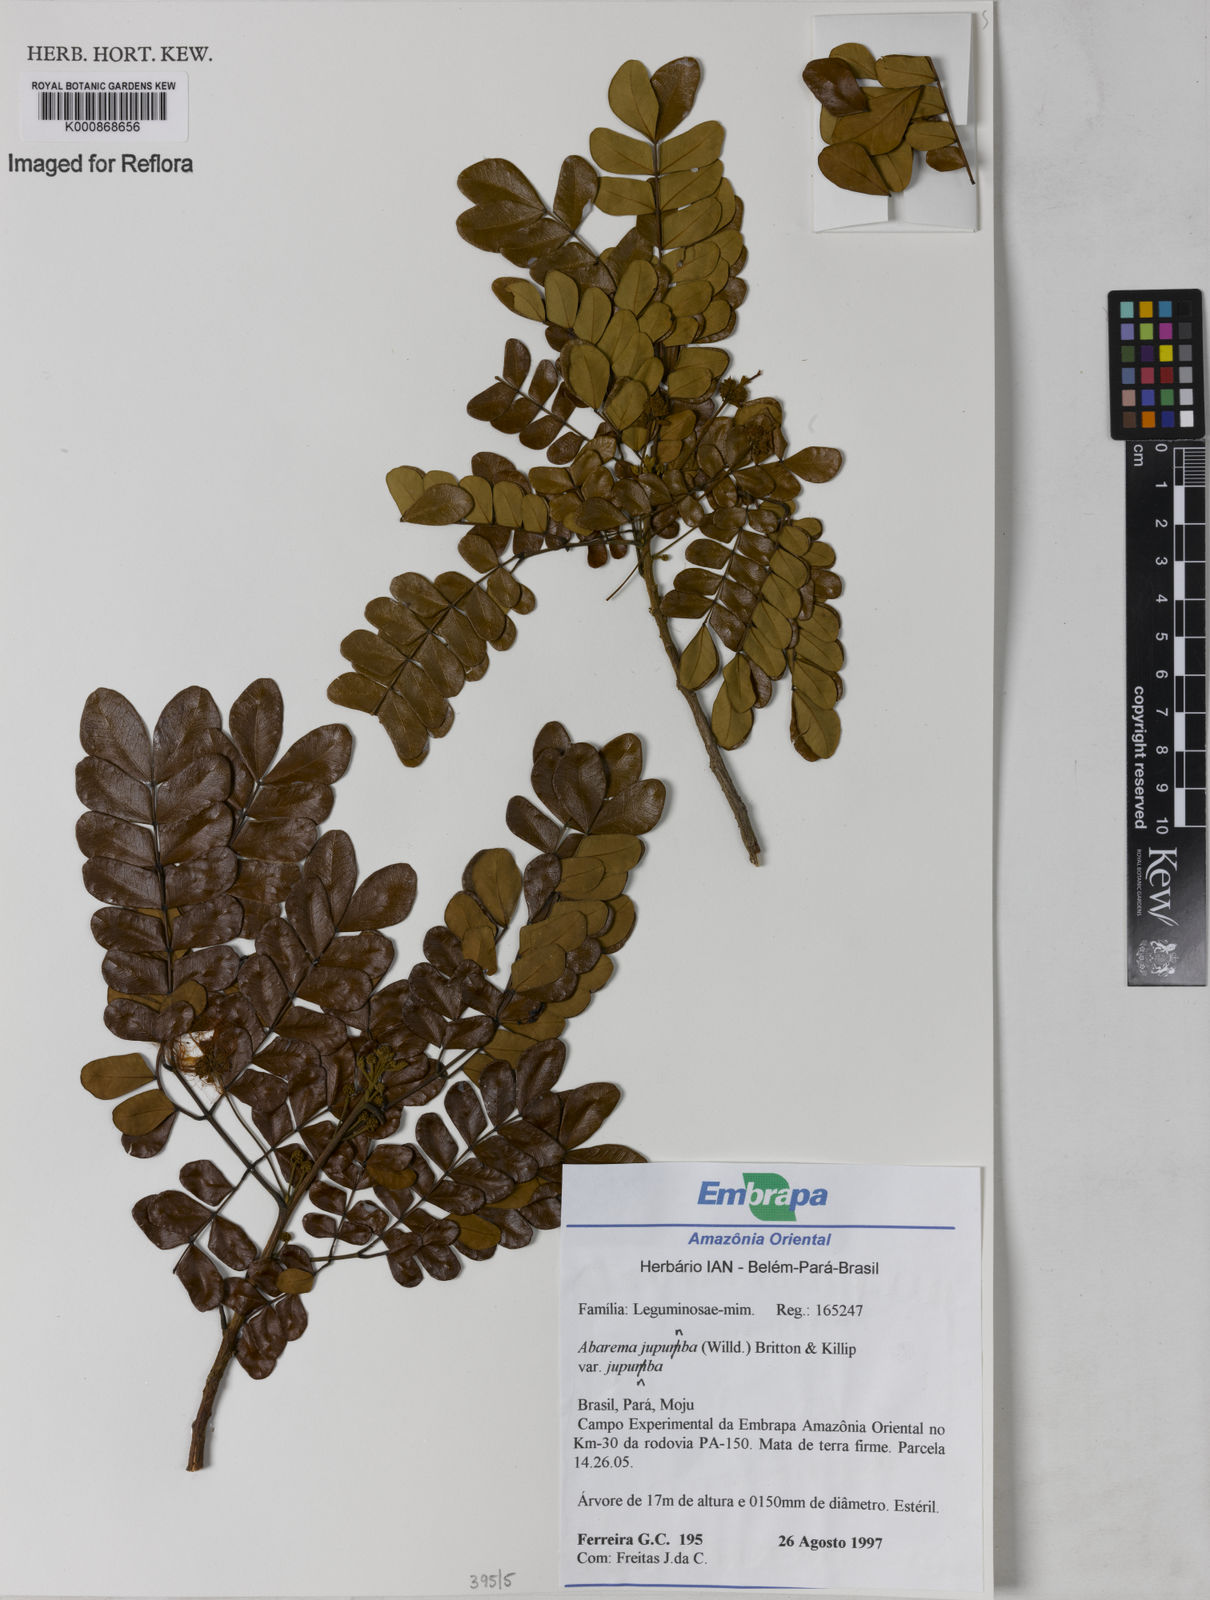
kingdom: Plantae
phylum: Tracheophyta
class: Magnoliopsida
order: Fabales
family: Fabaceae
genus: Jupunba
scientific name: Jupunba trapezifolia
